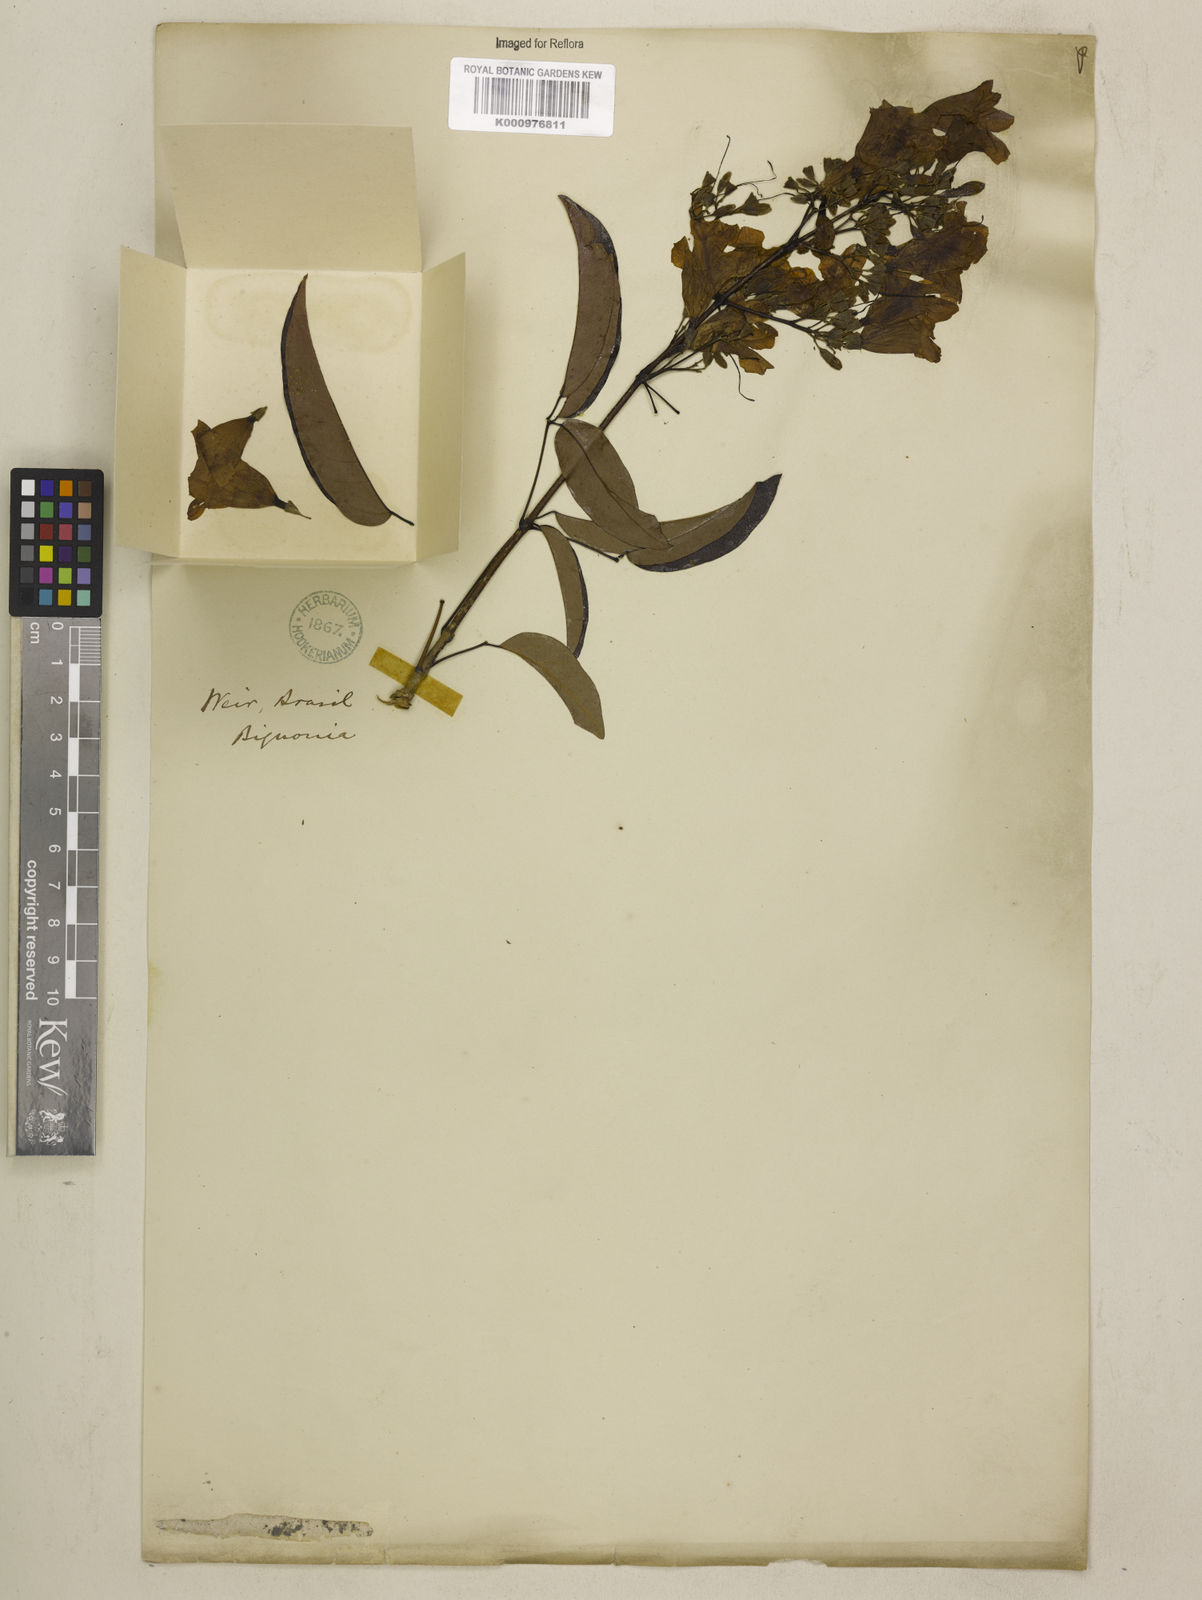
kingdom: Plantae
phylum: Tracheophyta
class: Magnoliopsida
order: Lamiales
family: Bignoniaceae
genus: Fridericia
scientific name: Fridericia chica
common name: Cricketvine
